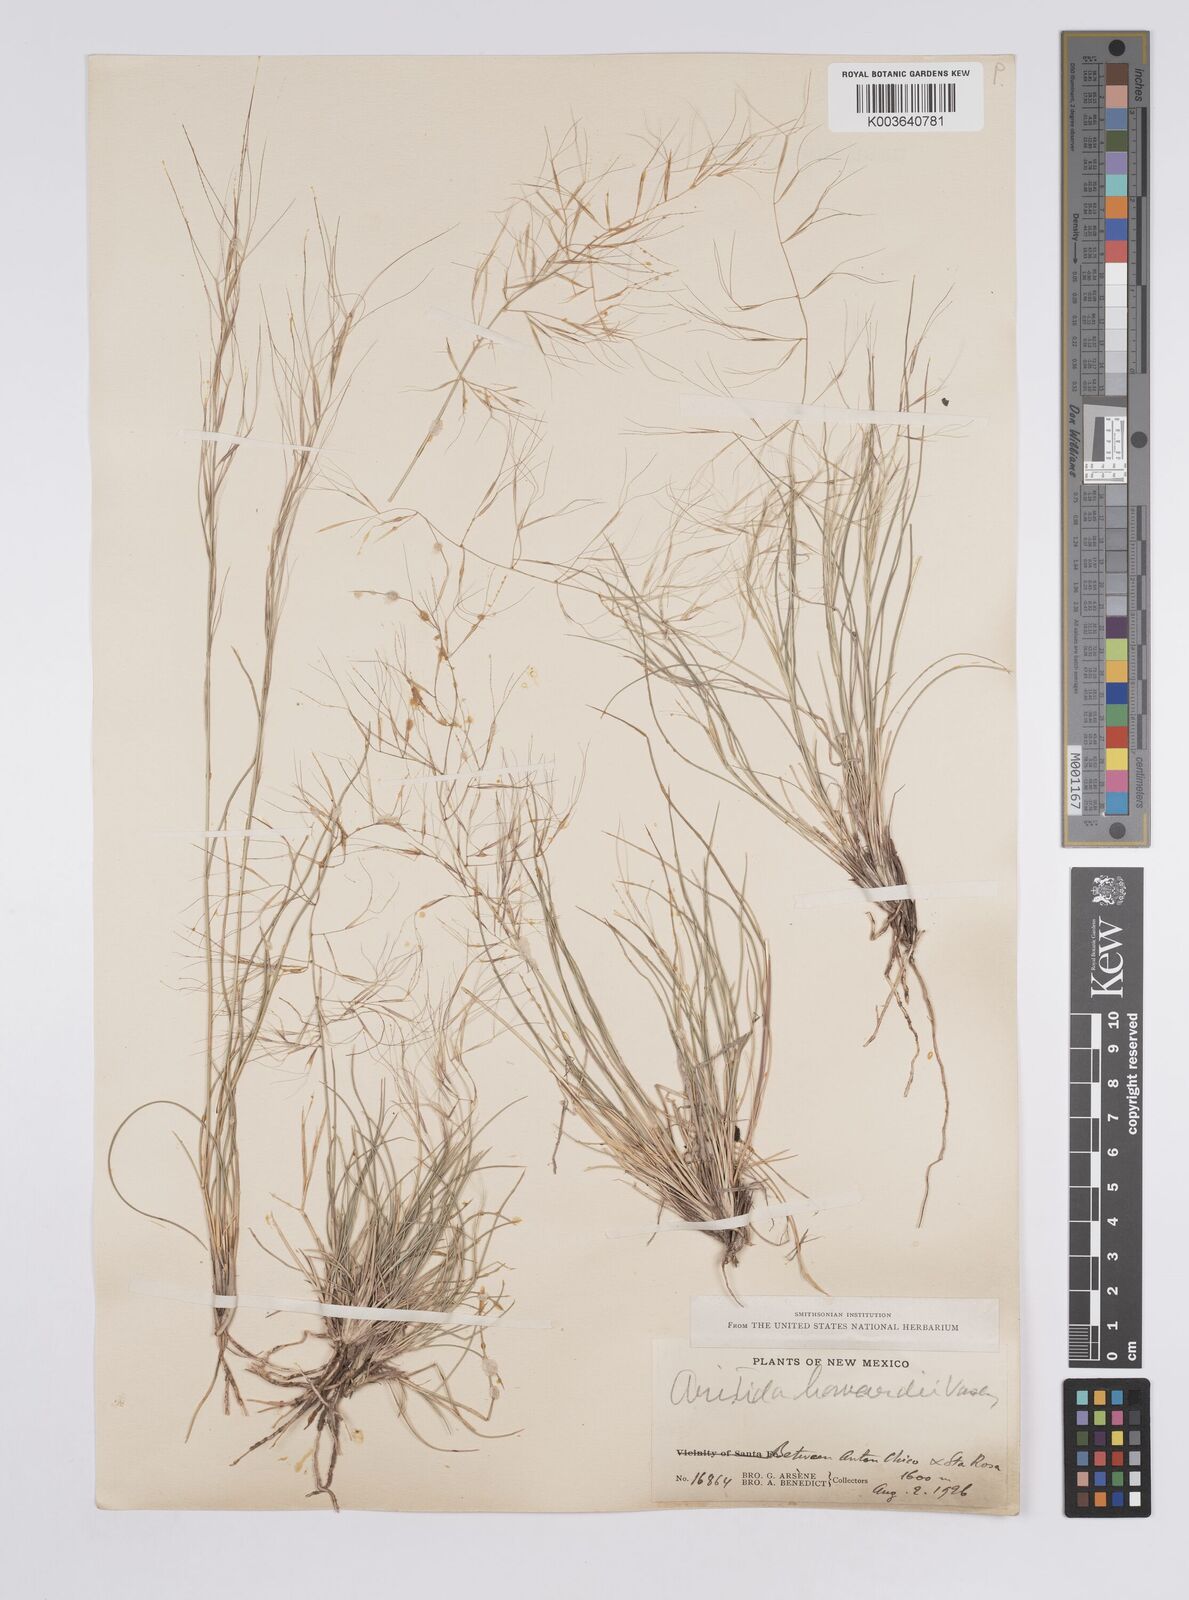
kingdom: Plantae
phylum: Tracheophyta
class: Liliopsida
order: Poales
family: Poaceae
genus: Aristida
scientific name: Aristida havardii
